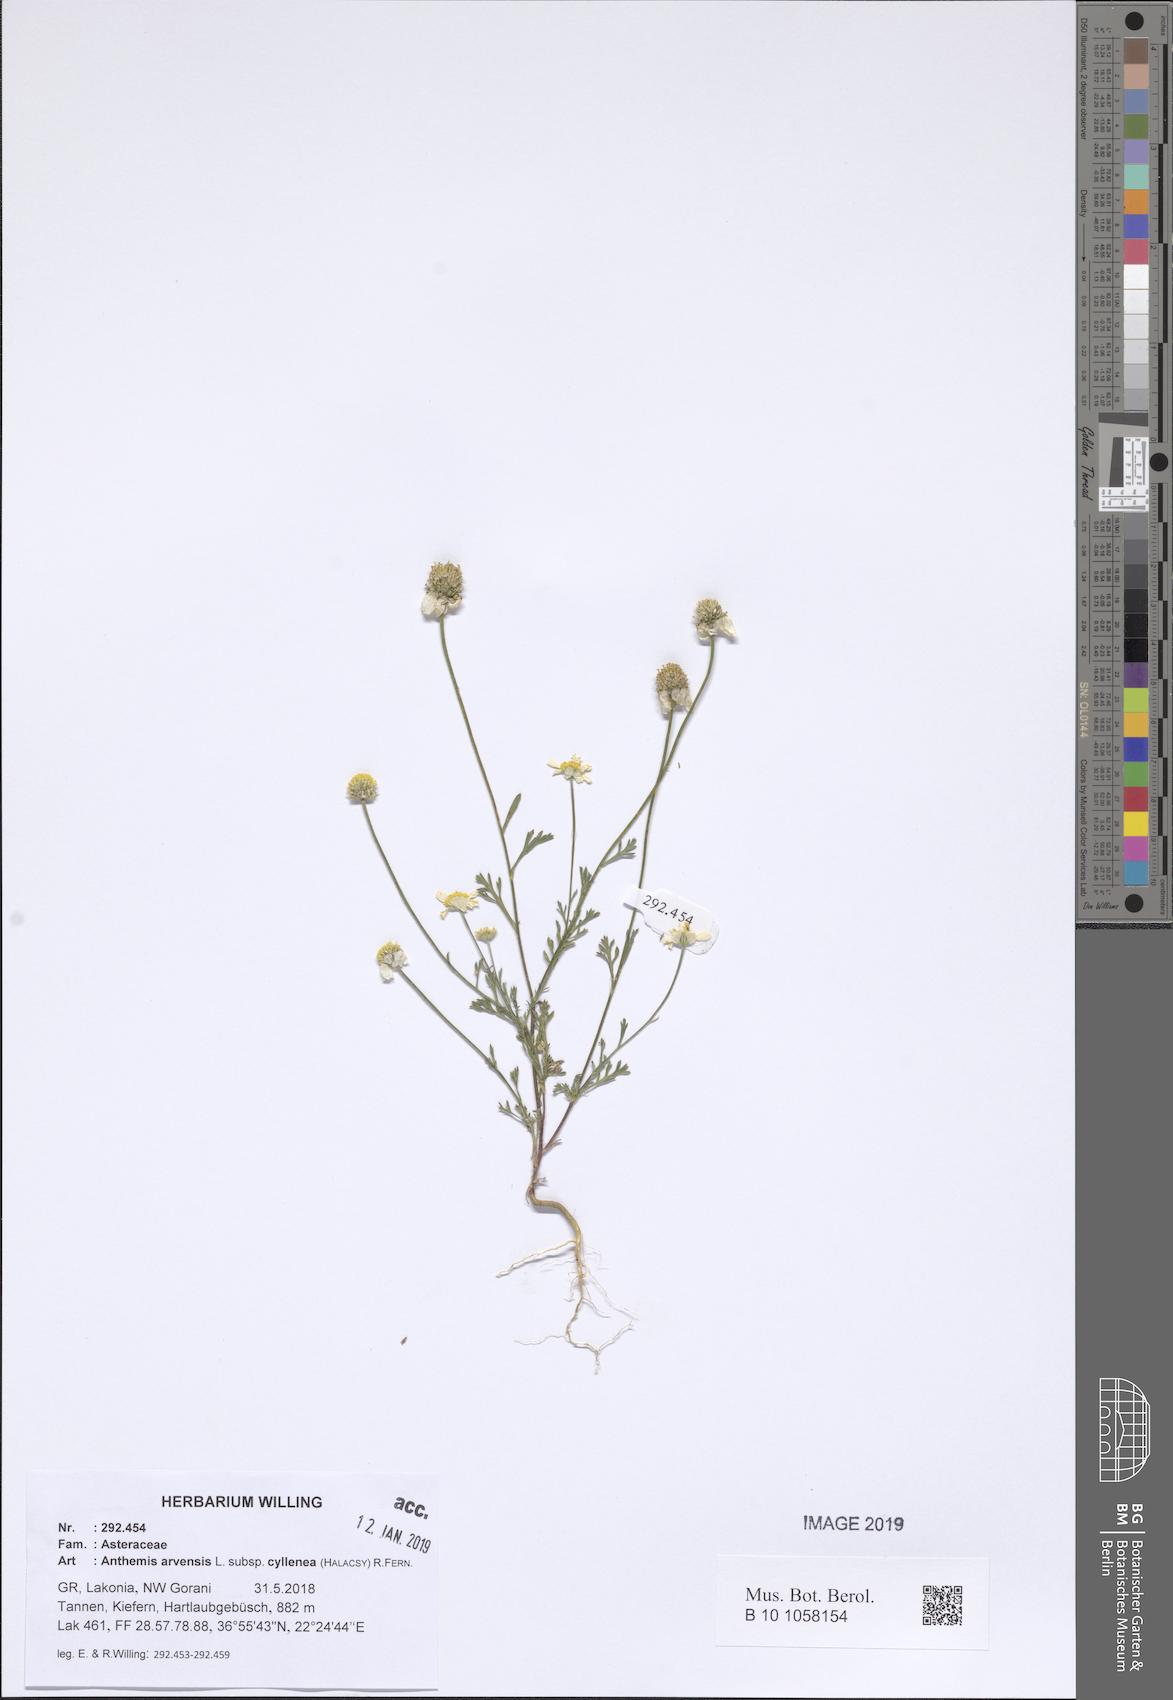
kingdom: Plantae
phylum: Tracheophyta
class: Magnoliopsida
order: Asterales
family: Asteraceae
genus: Anthemis
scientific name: Anthemis arvensis
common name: Corn chamomile
